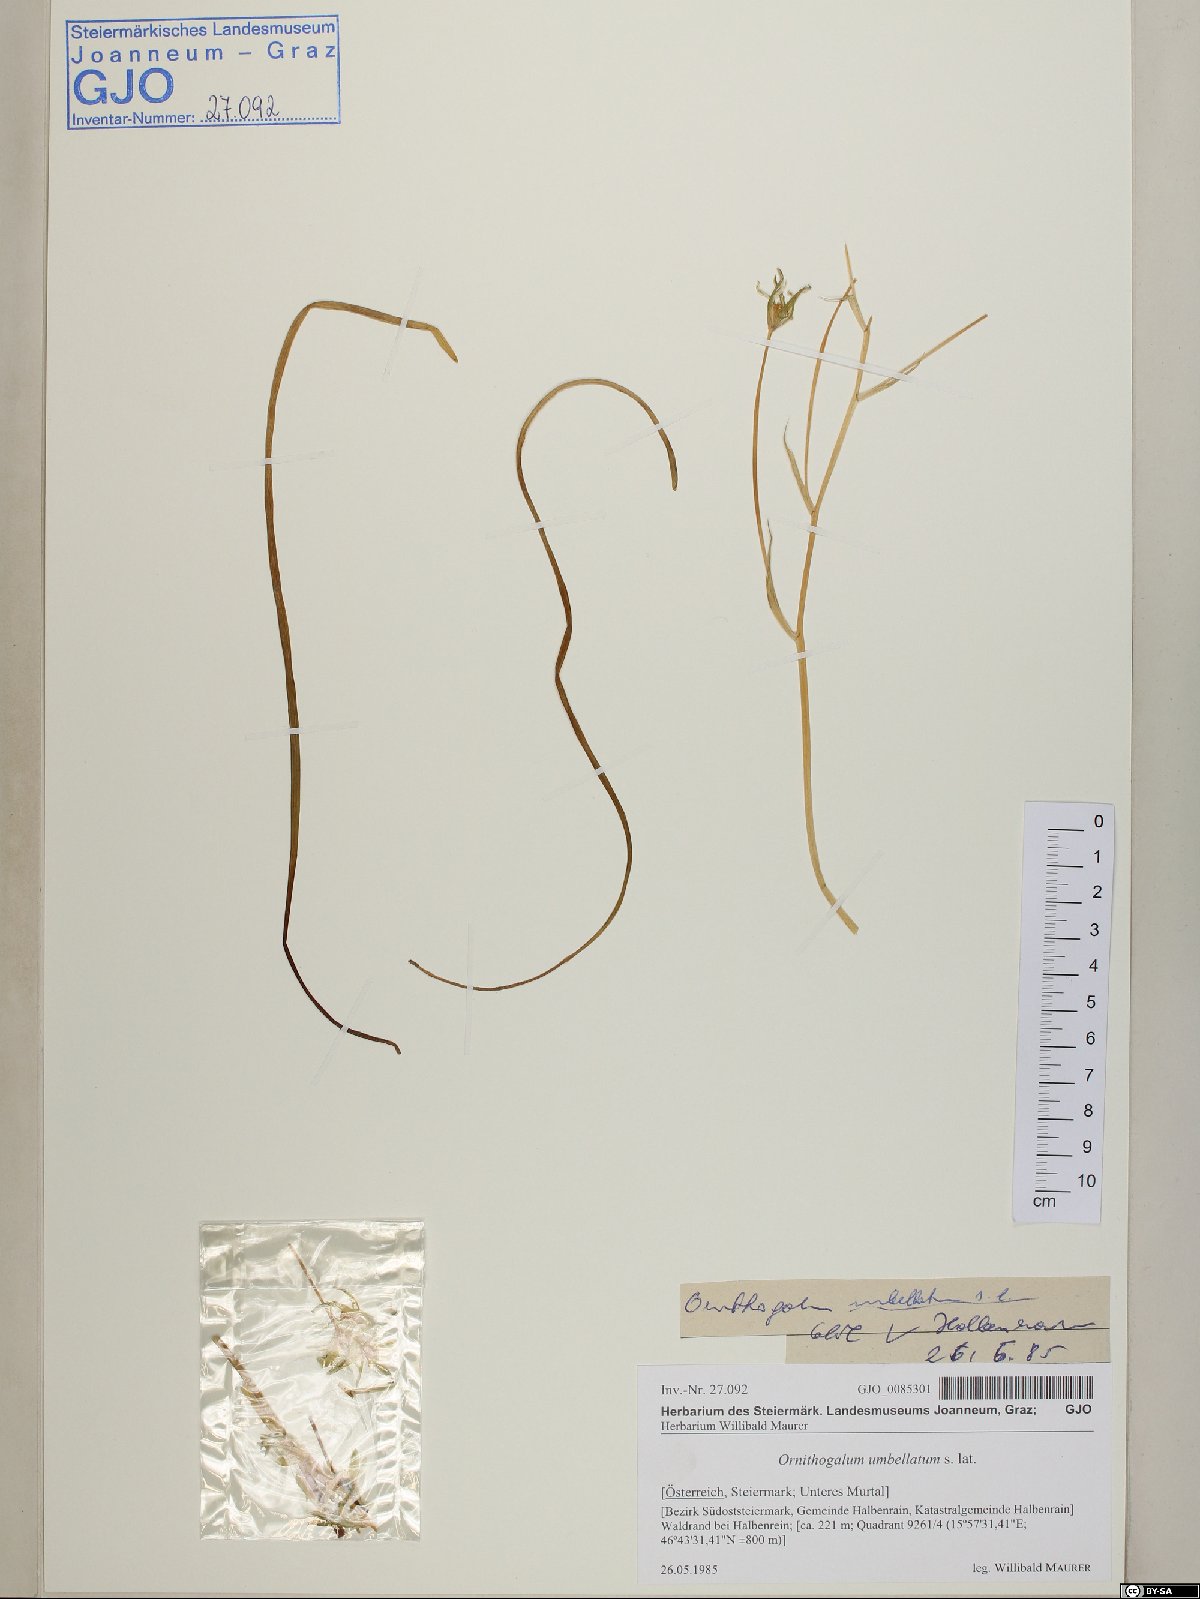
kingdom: Plantae
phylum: Tracheophyta
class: Liliopsida
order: Asparagales
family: Asparagaceae
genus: Ornithogalum
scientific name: Ornithogalum umbellatum
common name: Garden star-of-bethlehem
